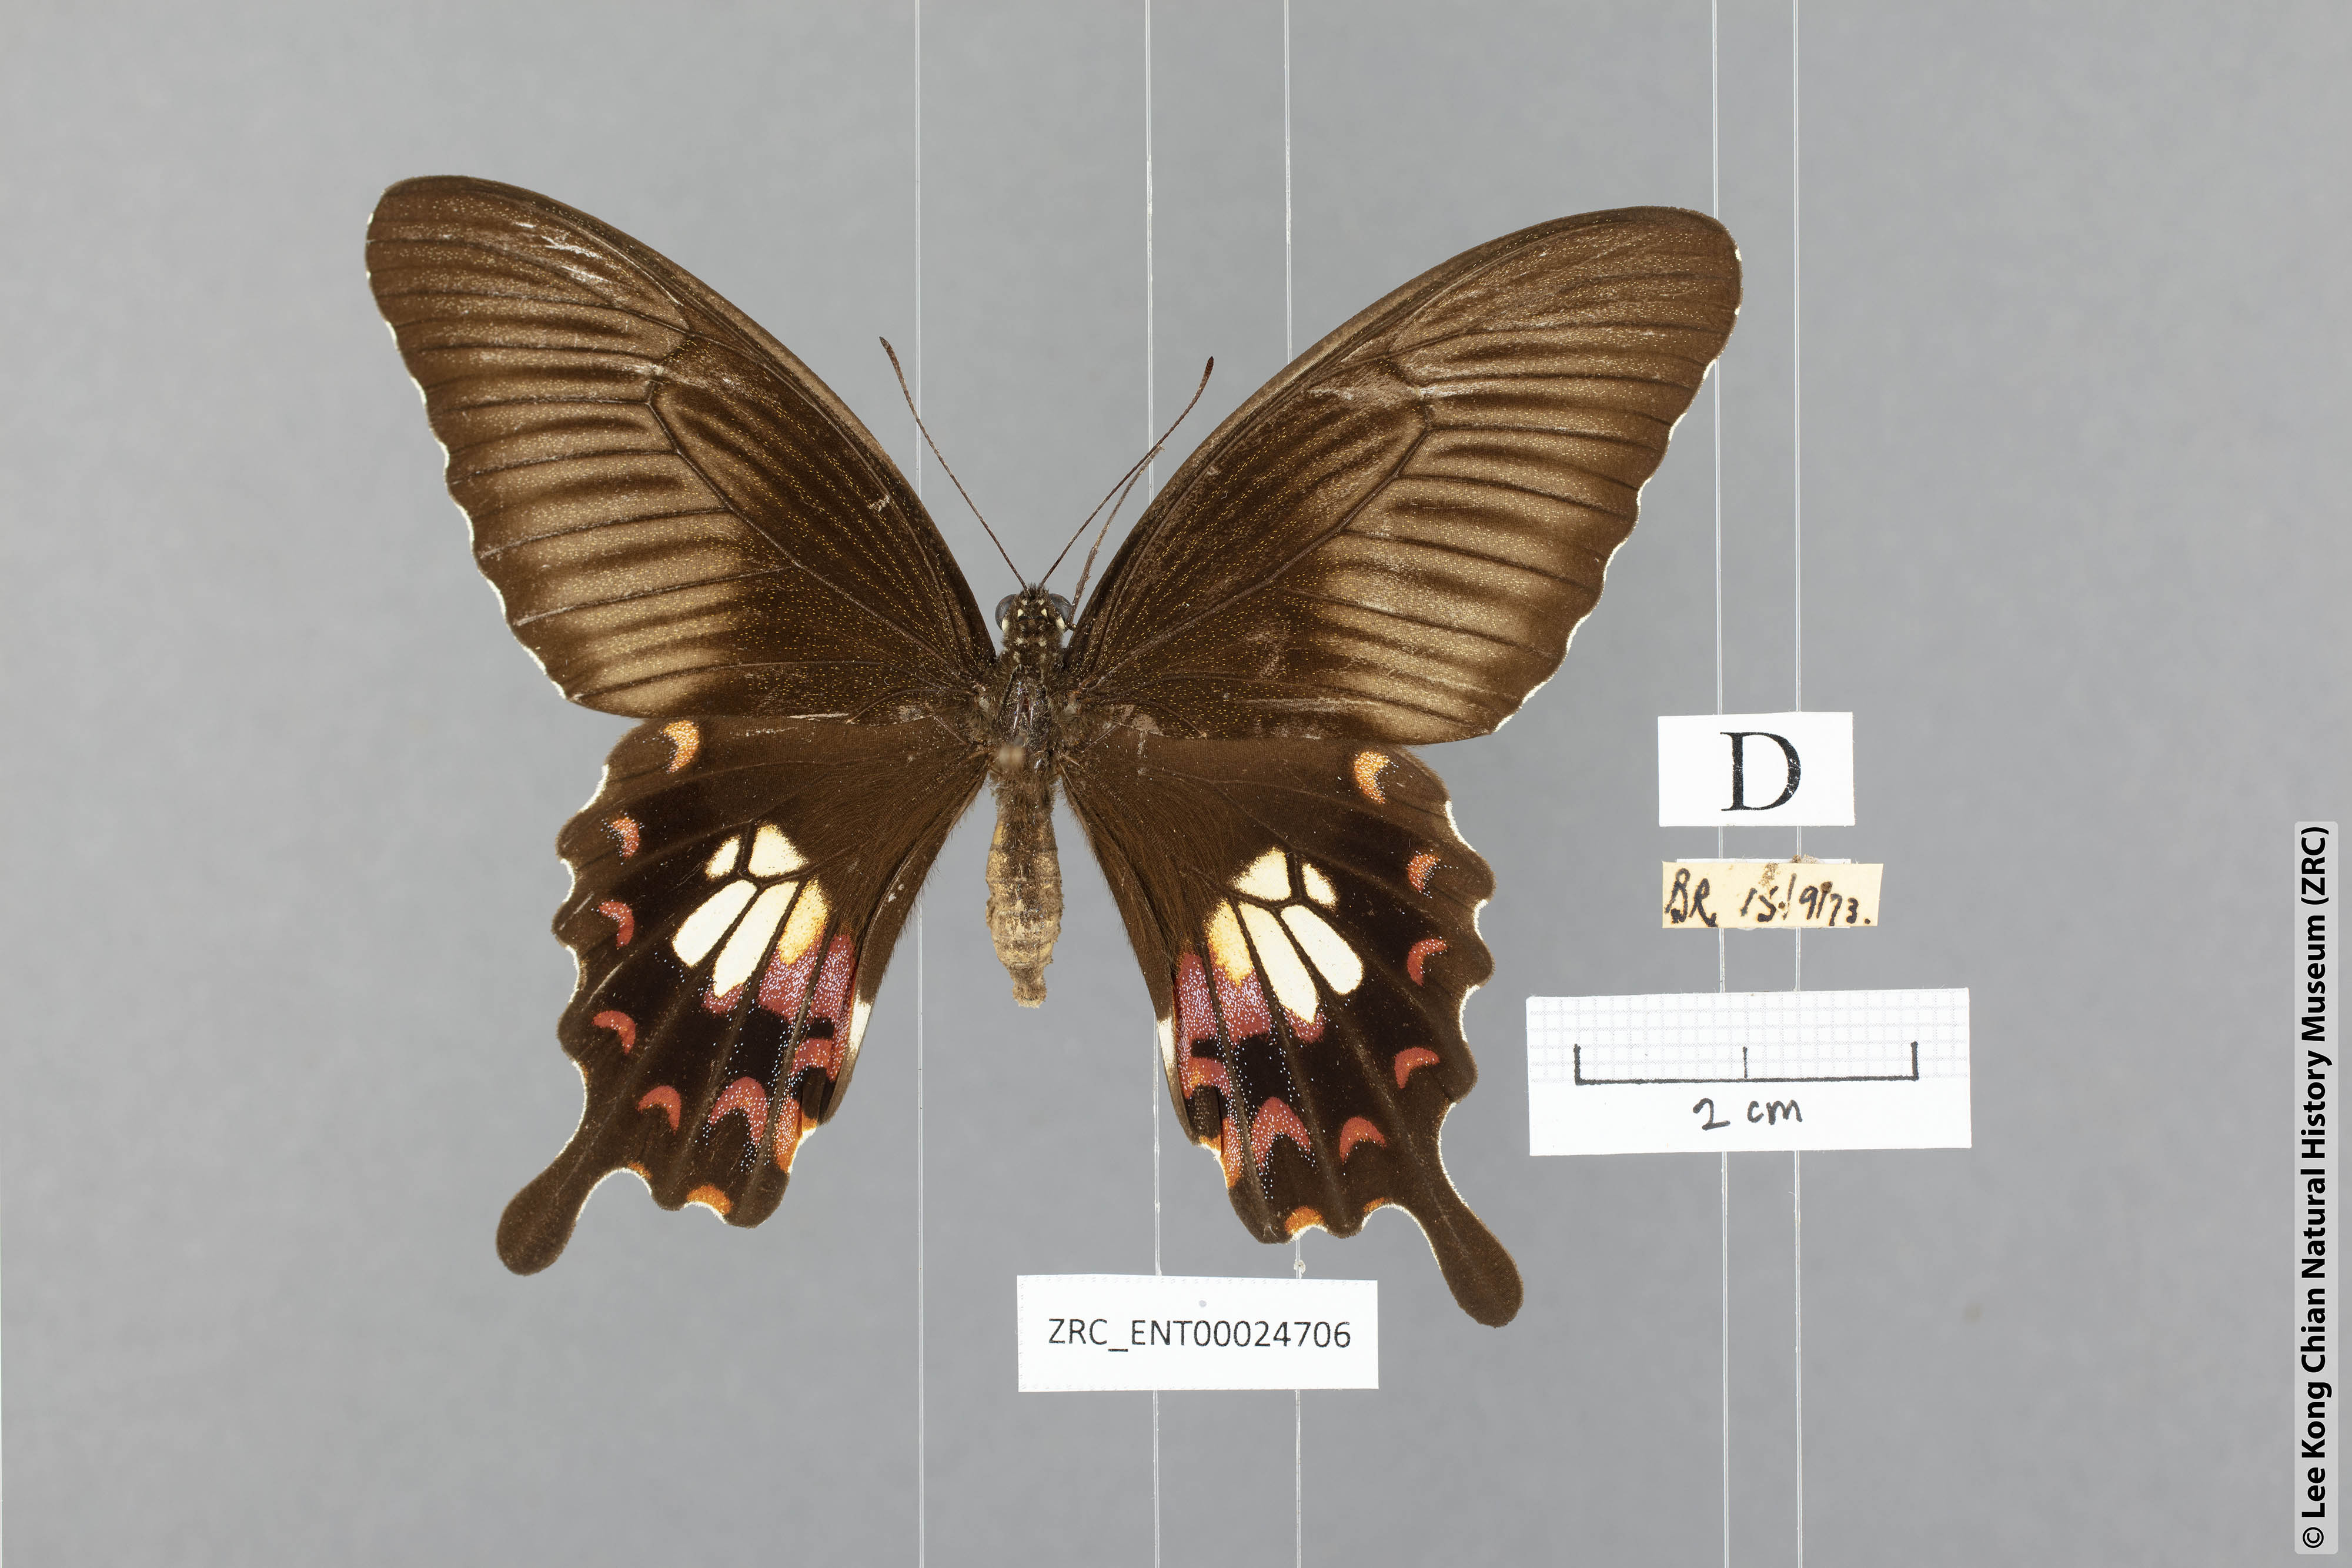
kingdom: Animalia
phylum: Arthropoda
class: Insecta
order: Lepidoptera
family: Papilionidae
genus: Papilio
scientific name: Papilio polytes
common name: Common mormon
